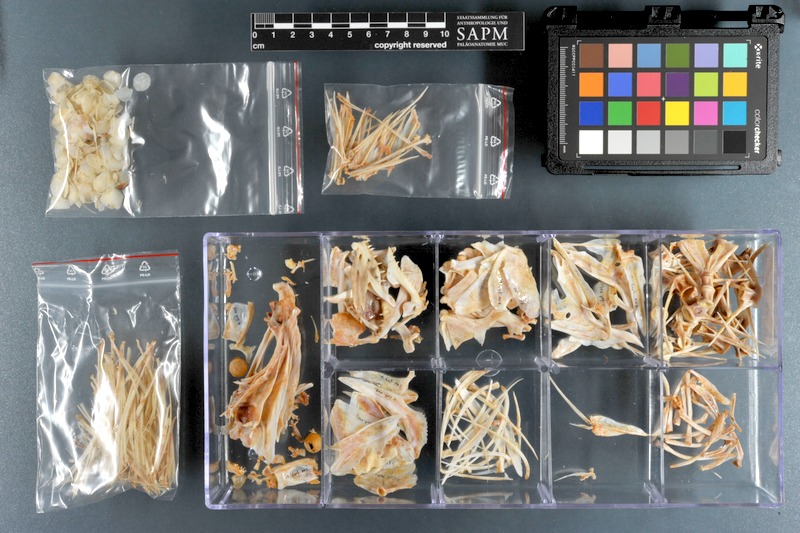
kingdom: Animalia
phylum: Chordata
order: Perciformes
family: Lutjanidae
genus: Lutjanus
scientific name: Lutjanus russellii
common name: Russell's snapper
